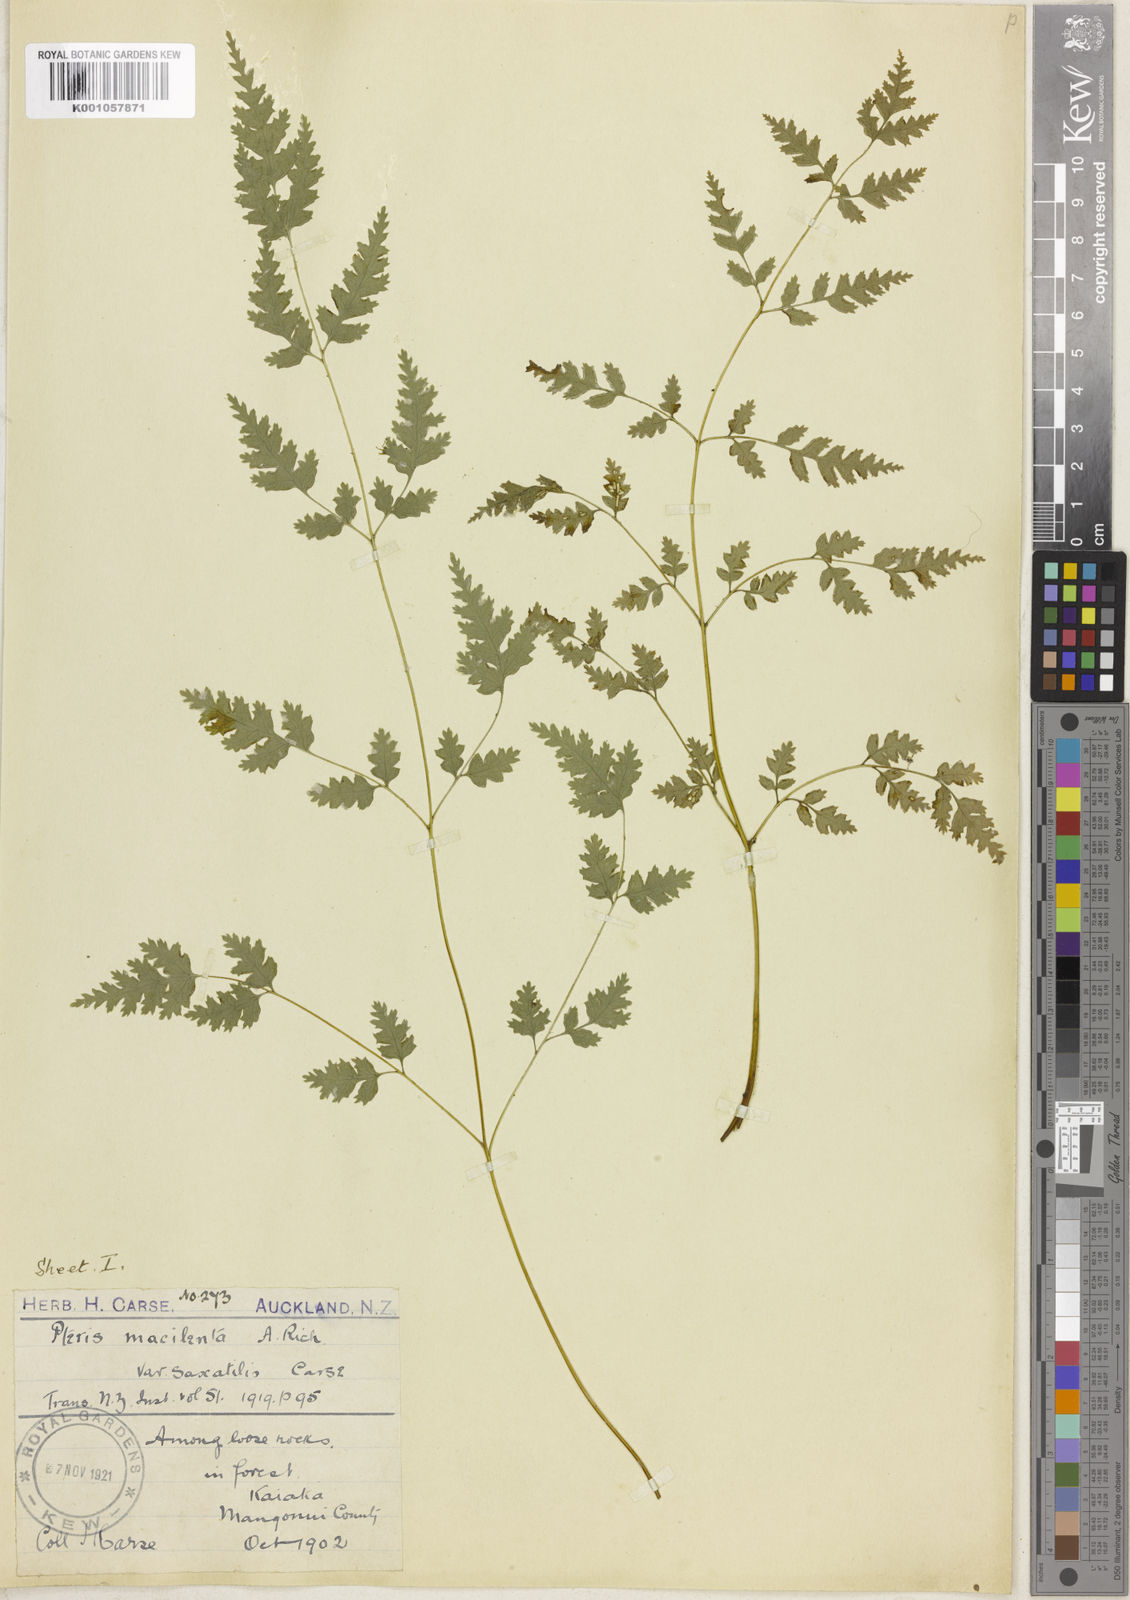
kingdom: Plantae
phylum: Tracheophyta
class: Polypodiopsida
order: Polypodiales
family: Pteridaceae
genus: Pteris
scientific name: Pteris macilenta
